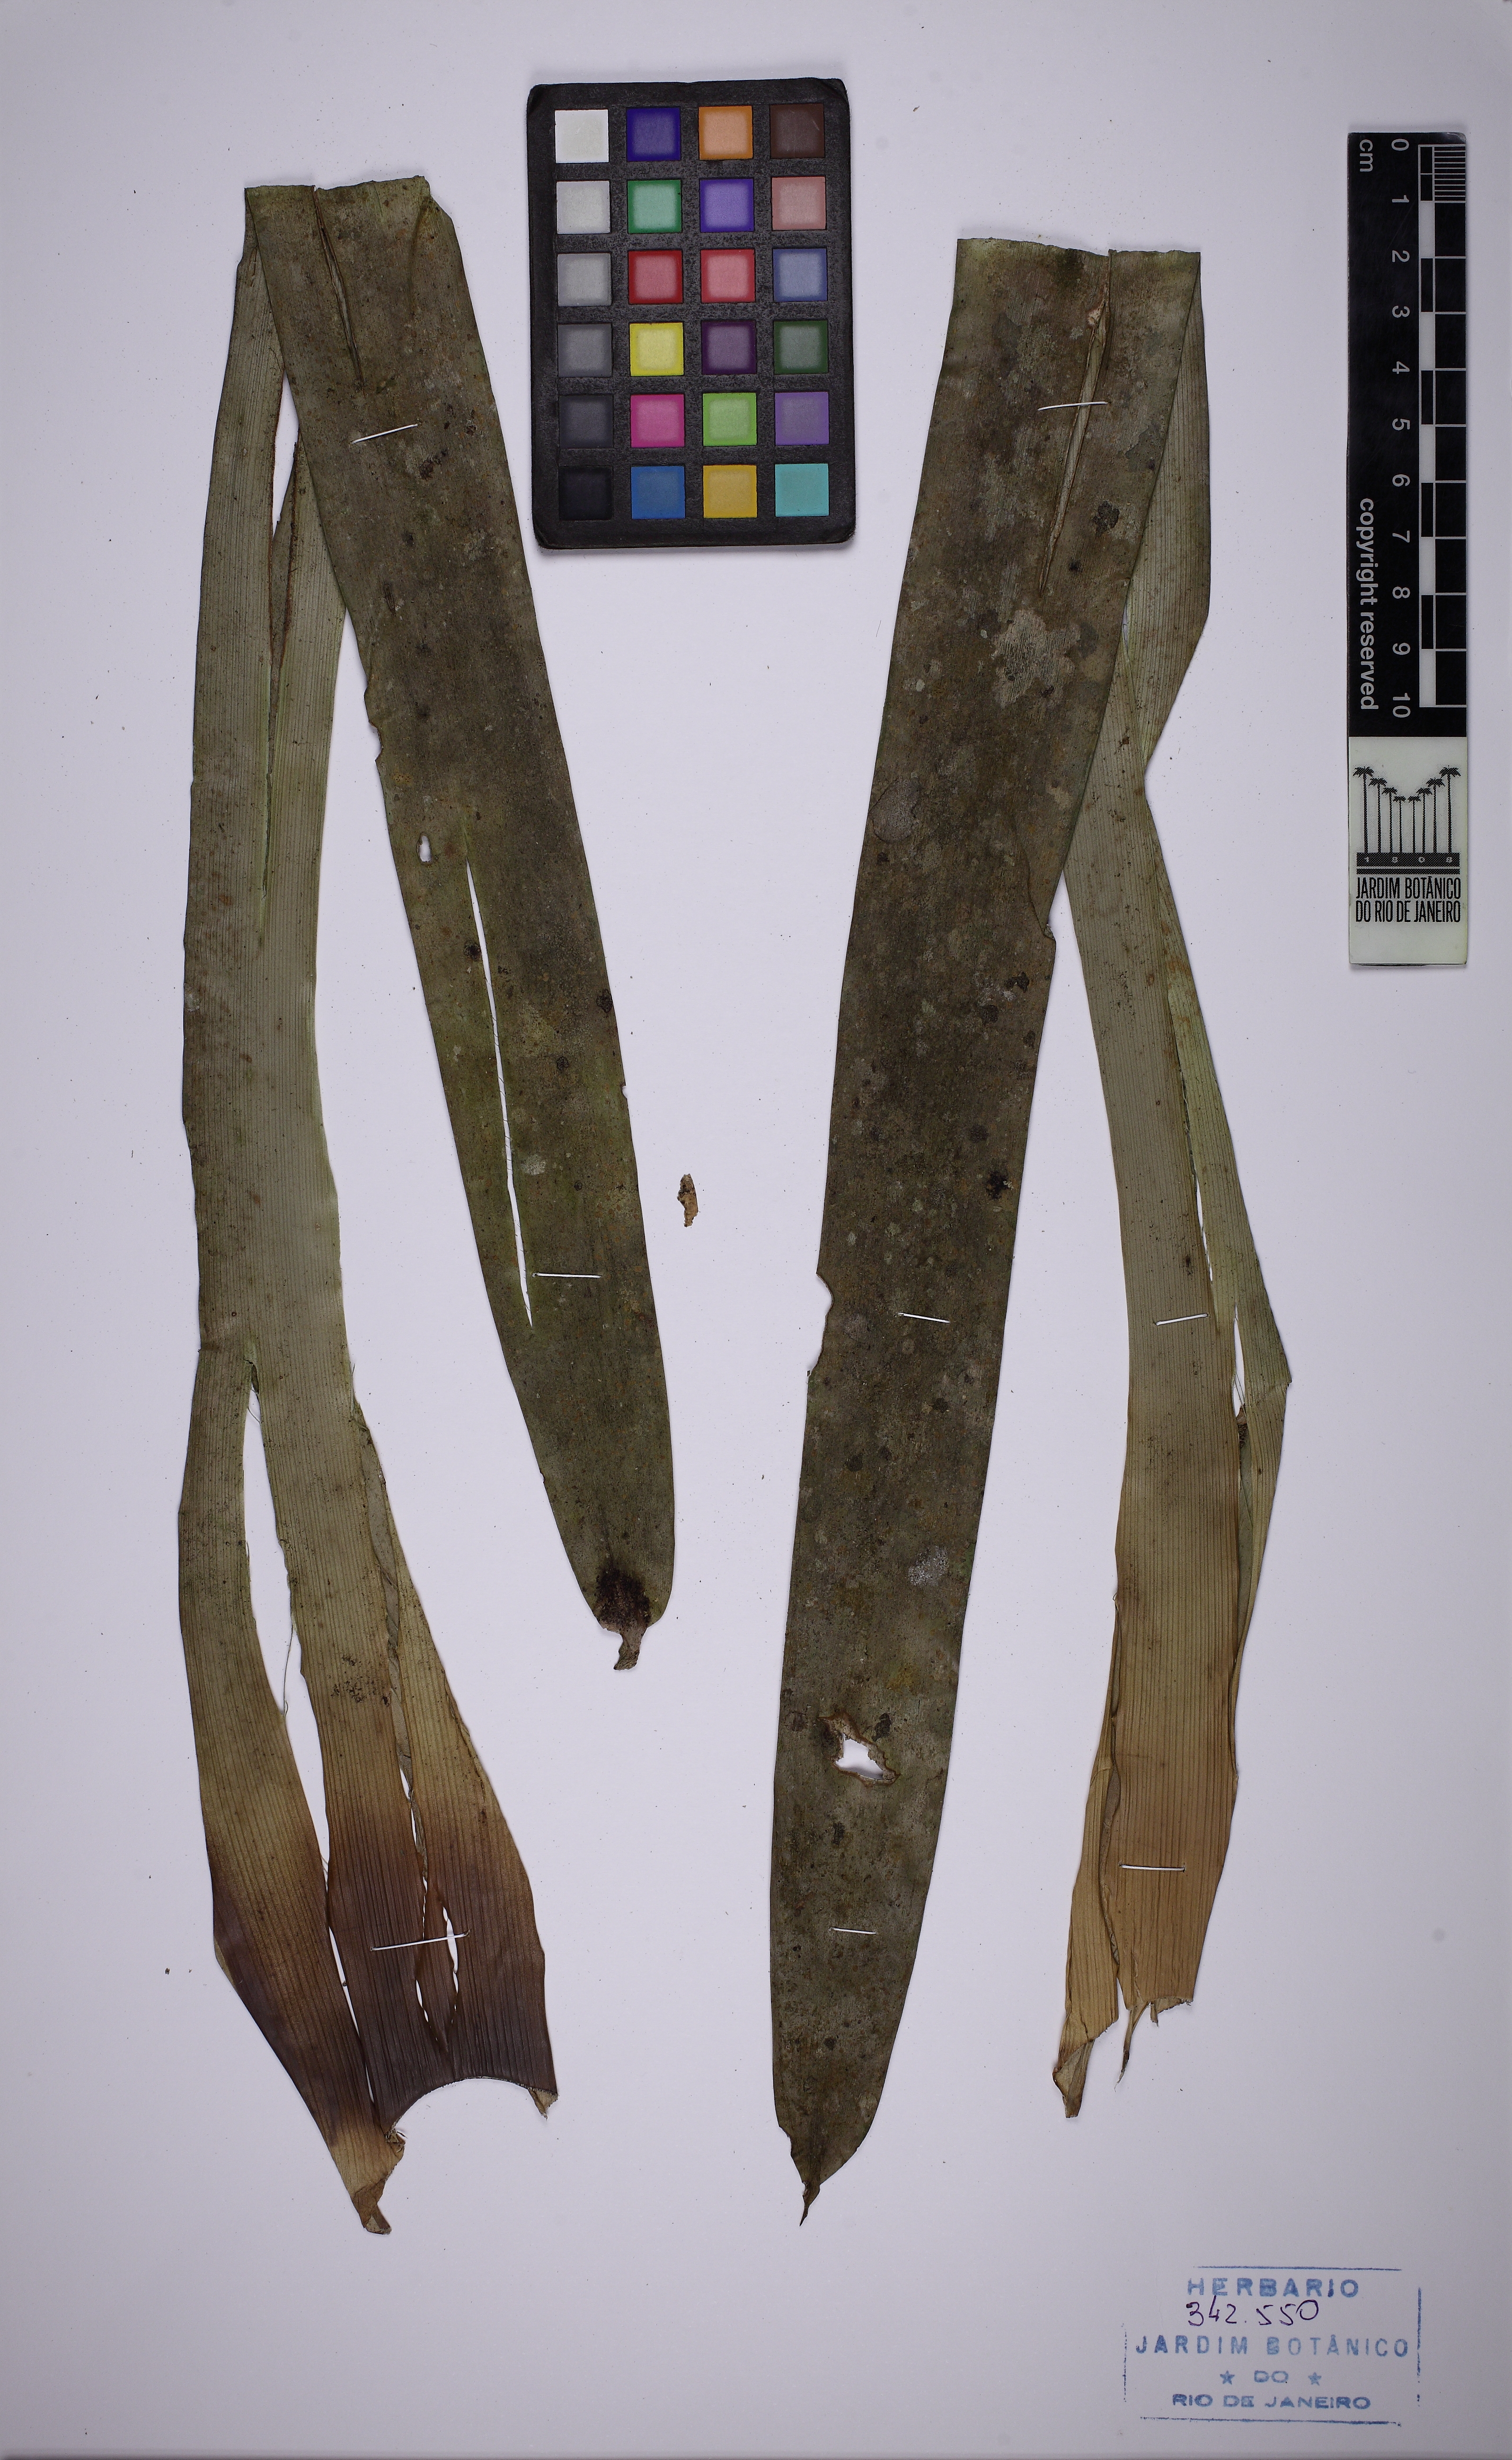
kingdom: Plantae
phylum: Tracheophyta
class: Liliopsida
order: Poales
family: Bromeliaceae
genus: Vriesea
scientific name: Vriesea longicaulis
